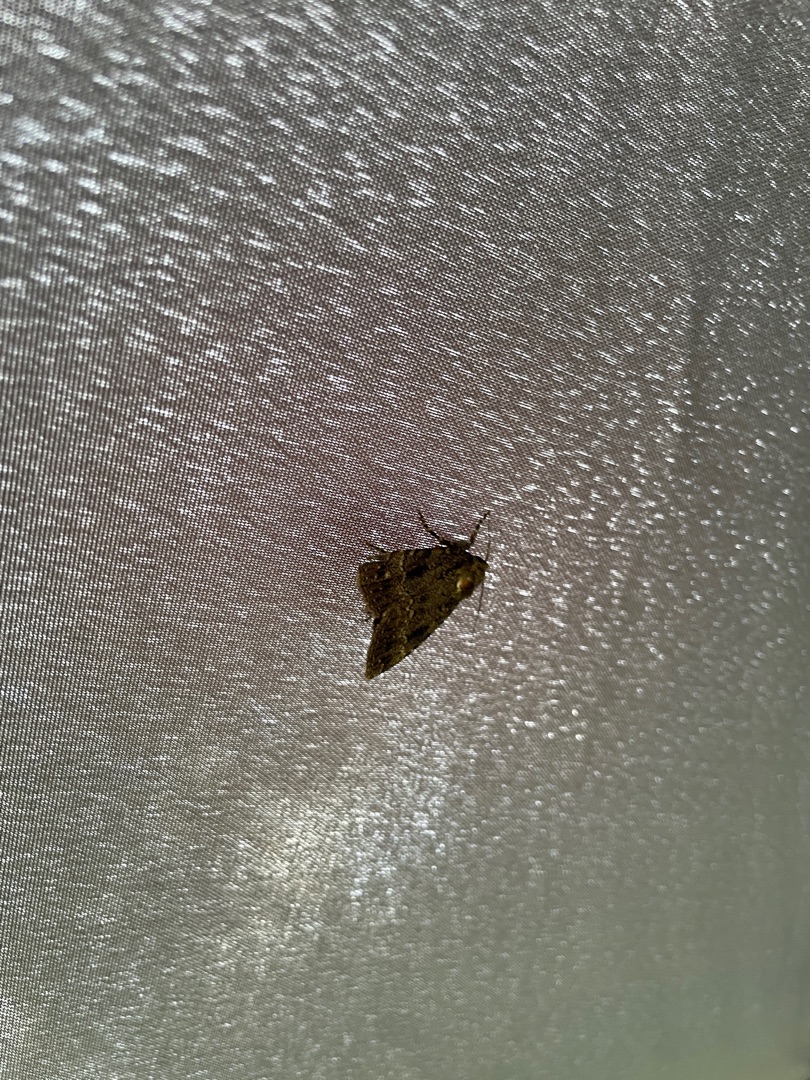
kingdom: Animalia
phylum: Arthropoda
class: Insecta
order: Lepidoptera
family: Noctuidae
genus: Amphipyra
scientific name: Amphipyra pyramidea
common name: Pyramideugle
